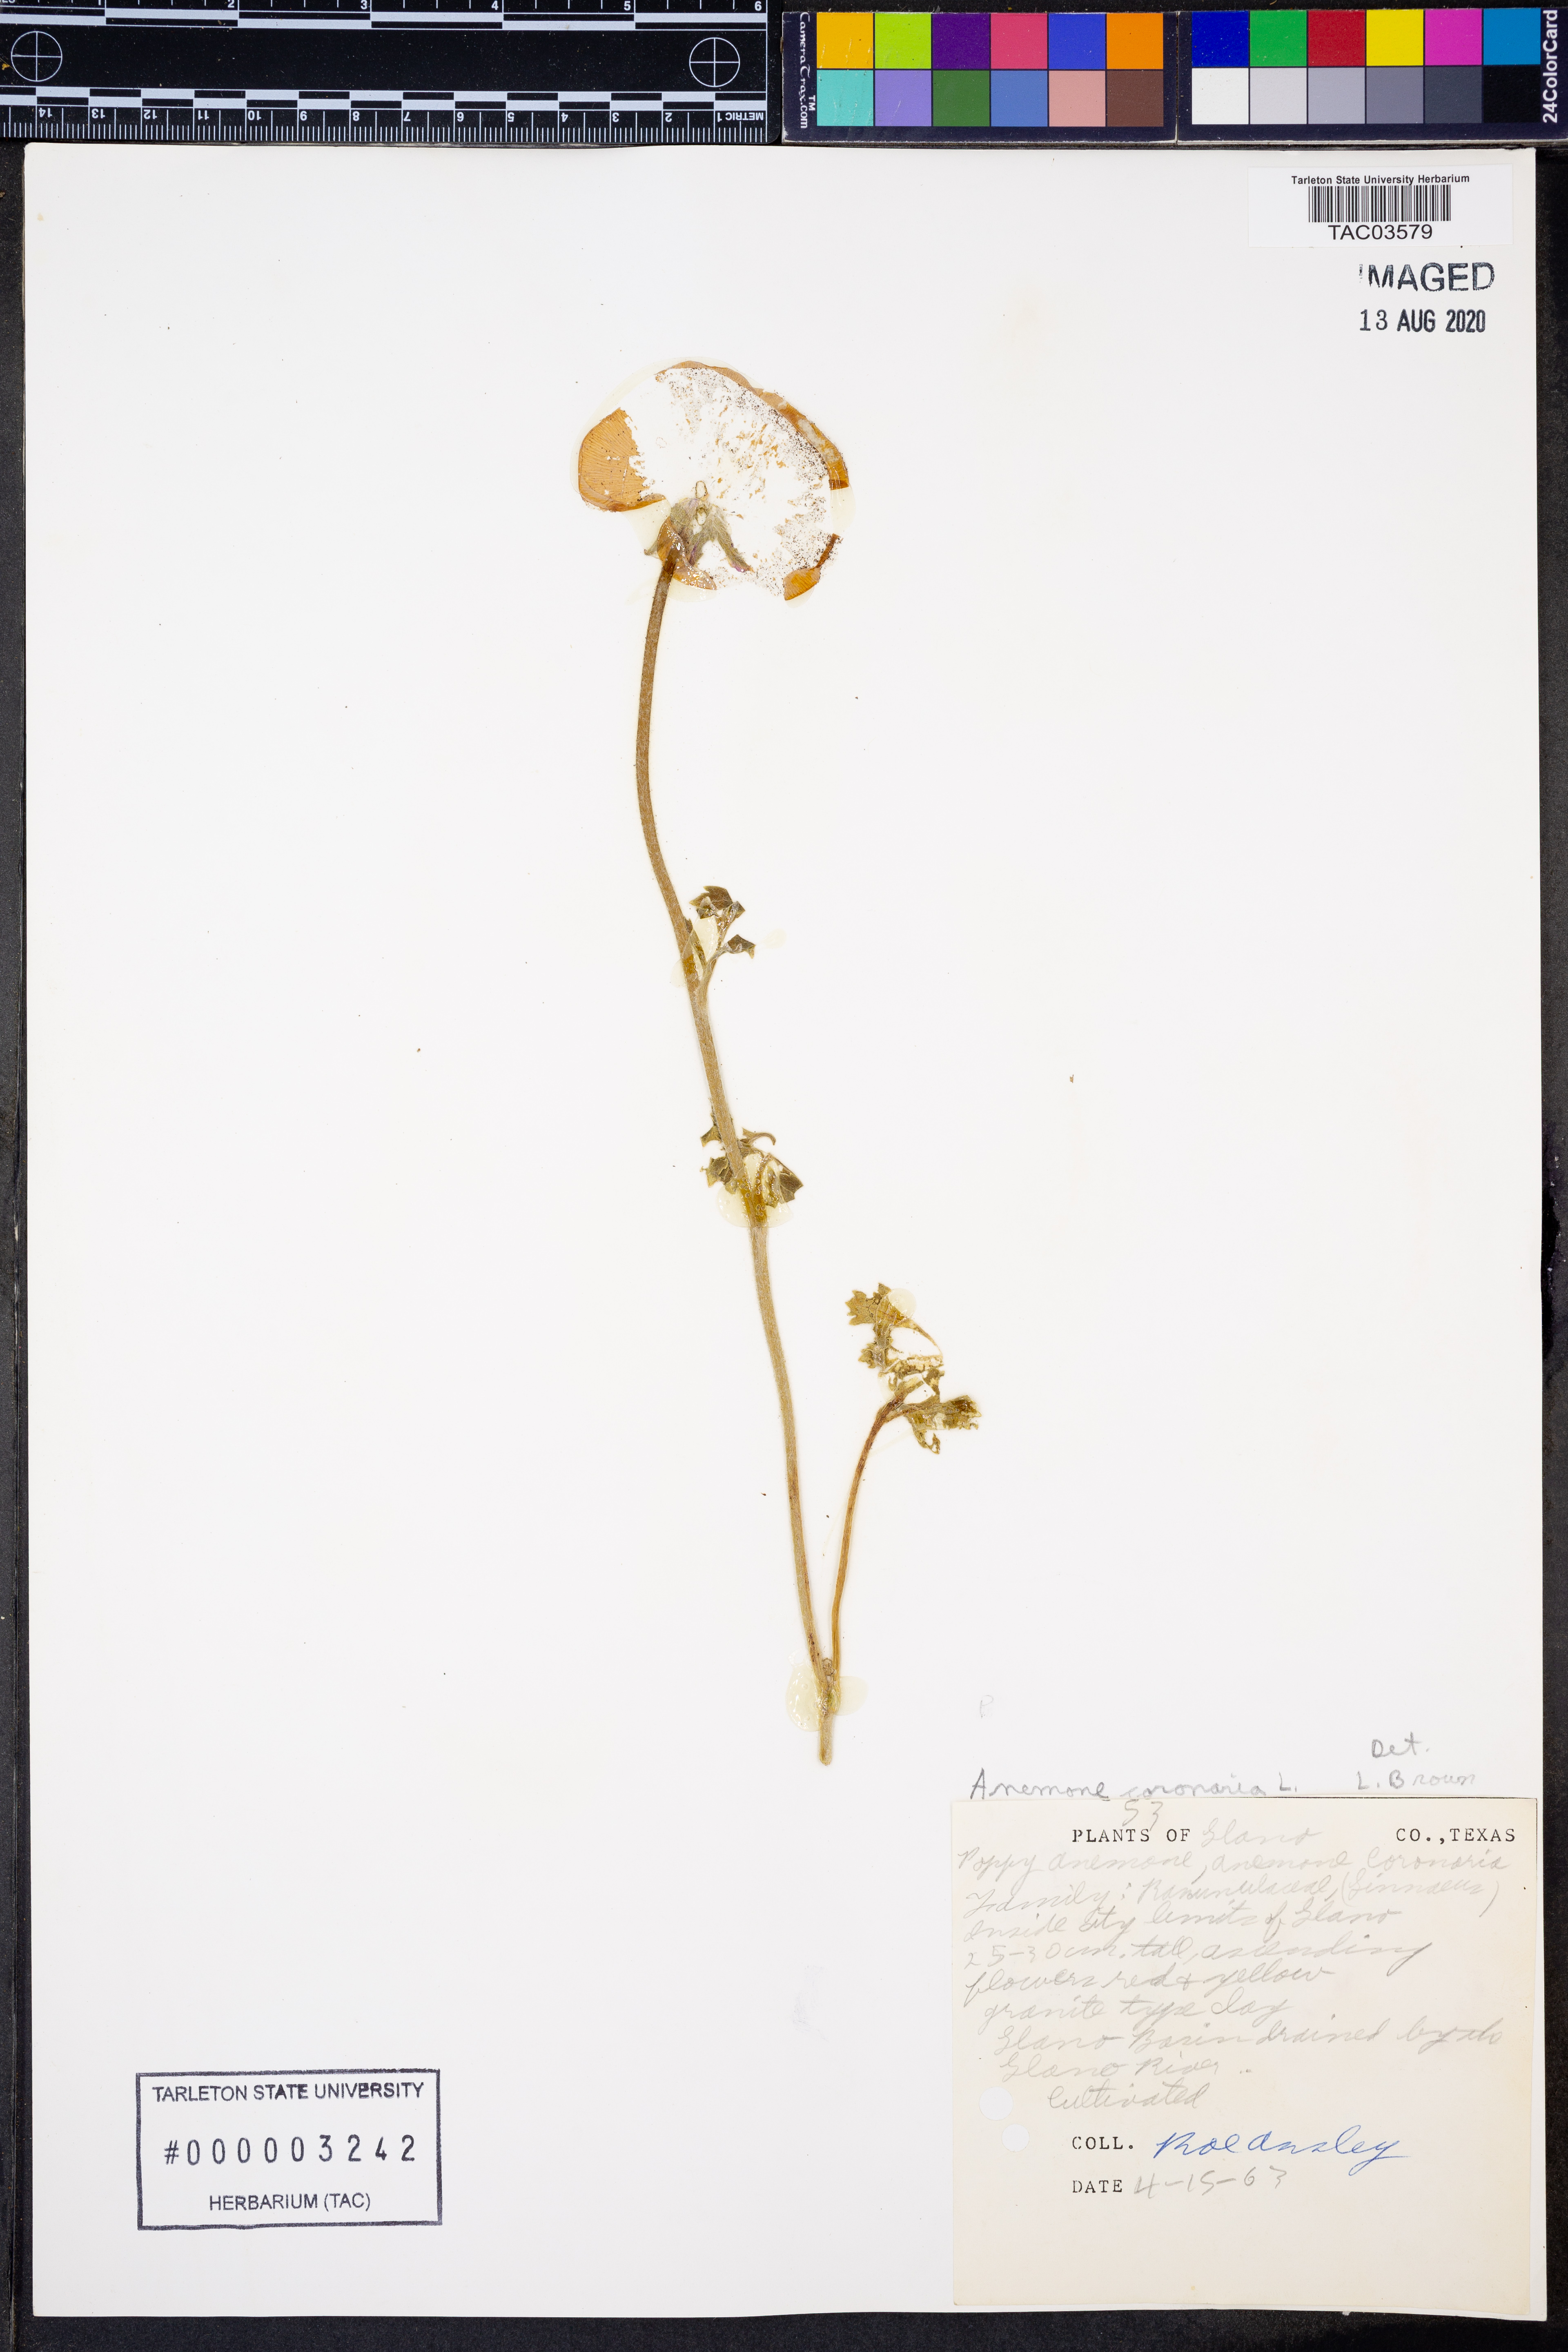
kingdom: Plantae
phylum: Tracheophyta
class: Magnoliopsida
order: Ranunculales
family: Ranunculaceae
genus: Anemone
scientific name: Anemone coronaria
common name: Poppy anemone
